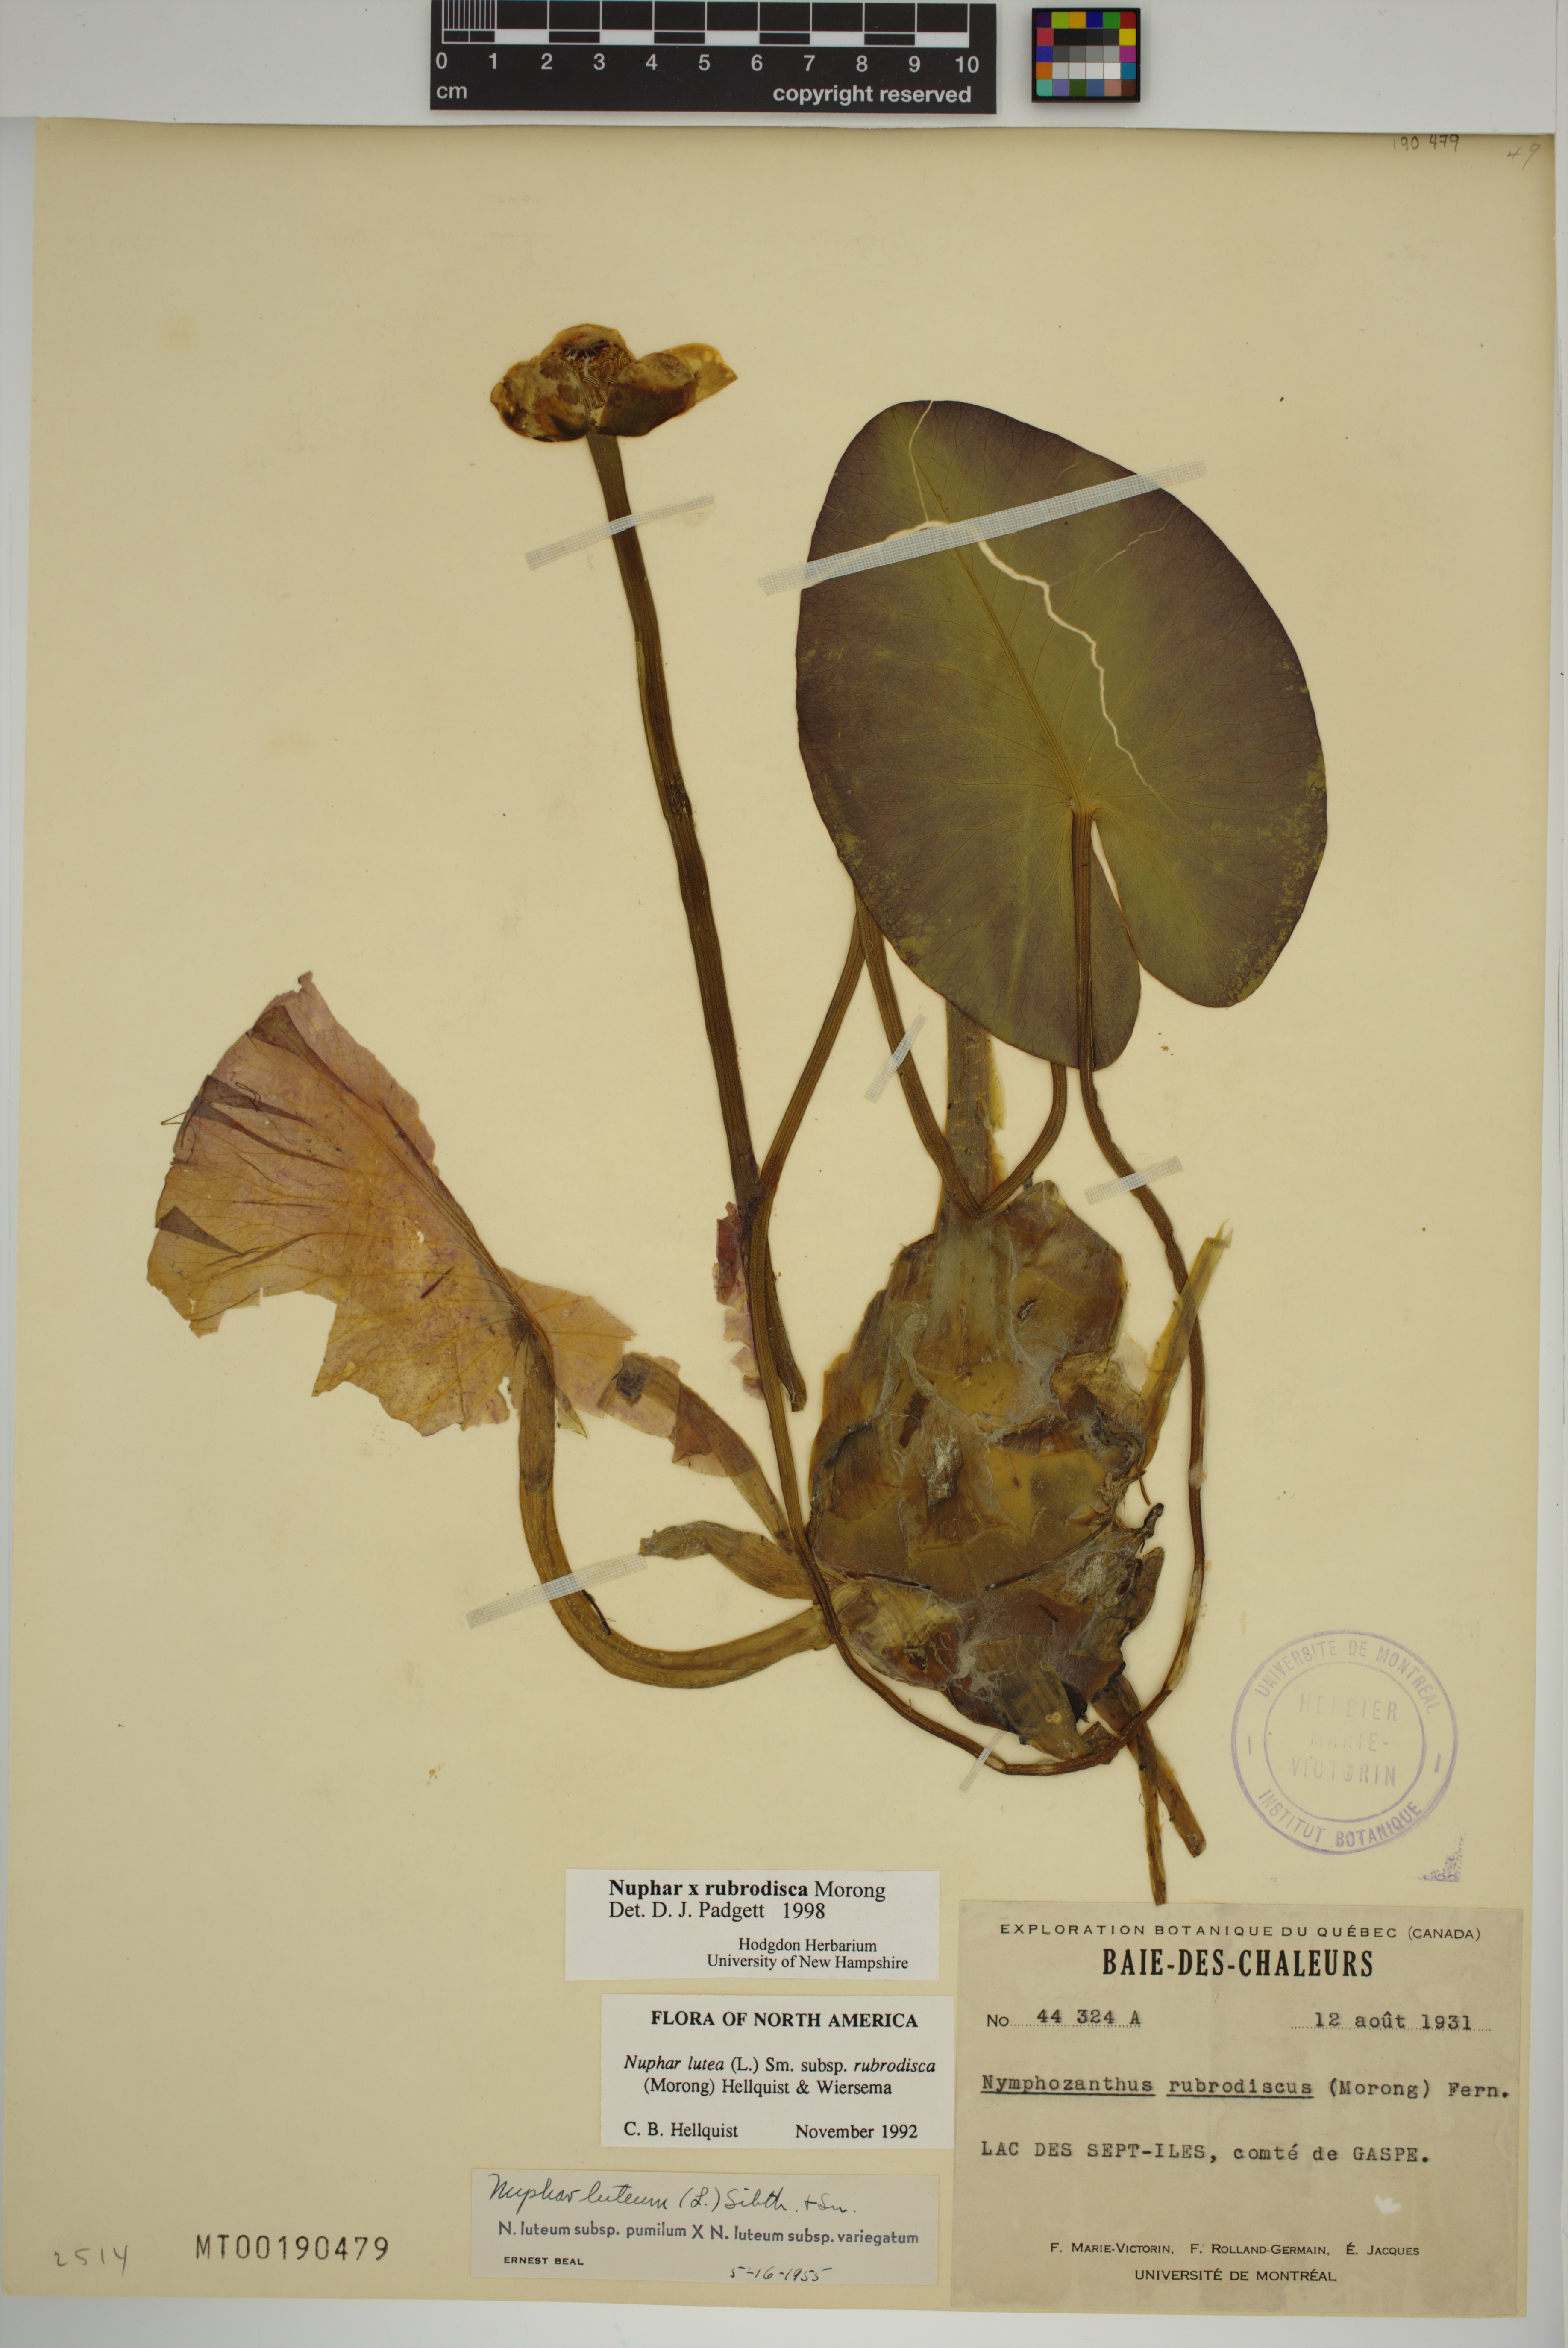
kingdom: Plantae
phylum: Tracheophyta
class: Magnoliopsida
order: Nymphaeales
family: Nymphaeaceae
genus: Nuphar
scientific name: Nuphar rubrodisca
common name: Yellow pond-lily
